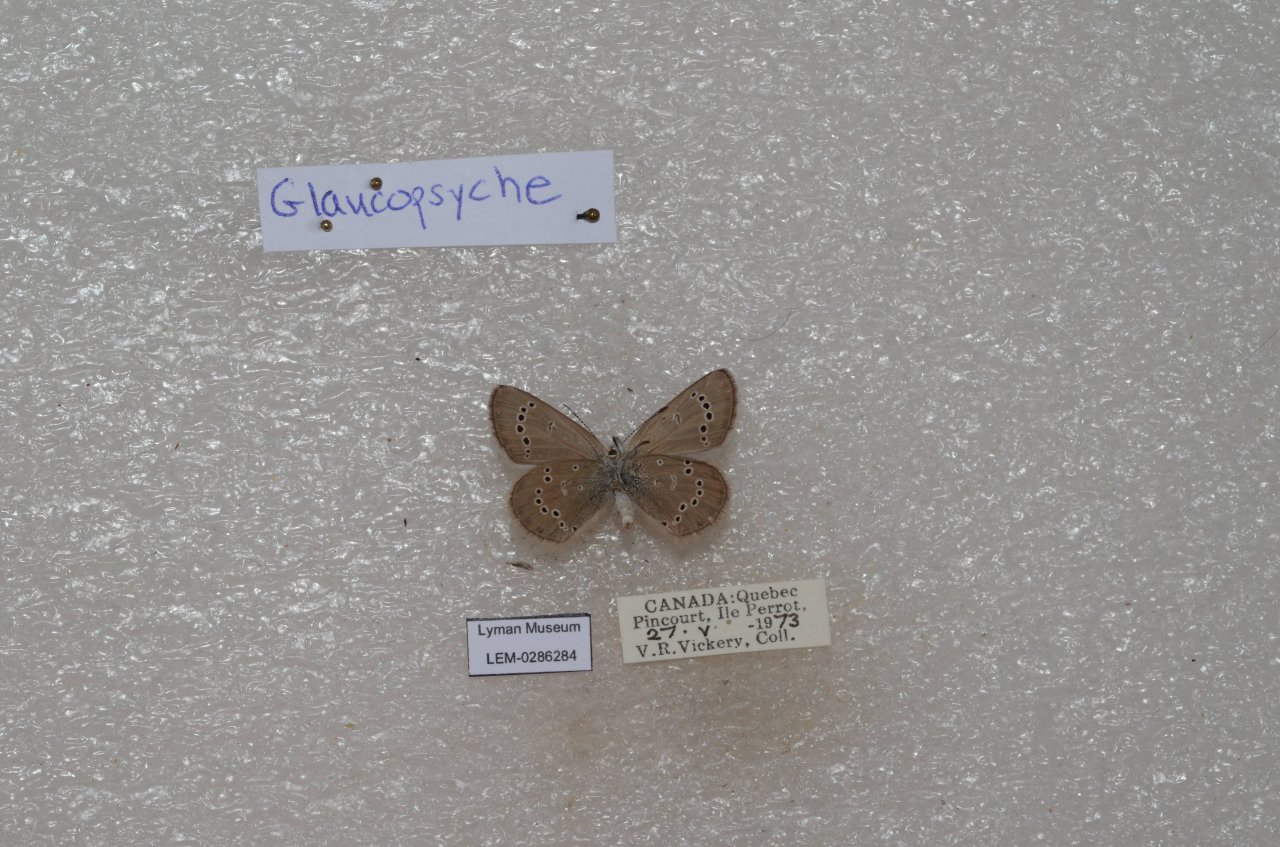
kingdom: Animalia
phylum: Arthropoda
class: Insecta
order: Lepidoptera
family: Lycaenidae
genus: Glaucopsyche
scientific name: Glaucopsyche lygdamus
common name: Silvery Blue
